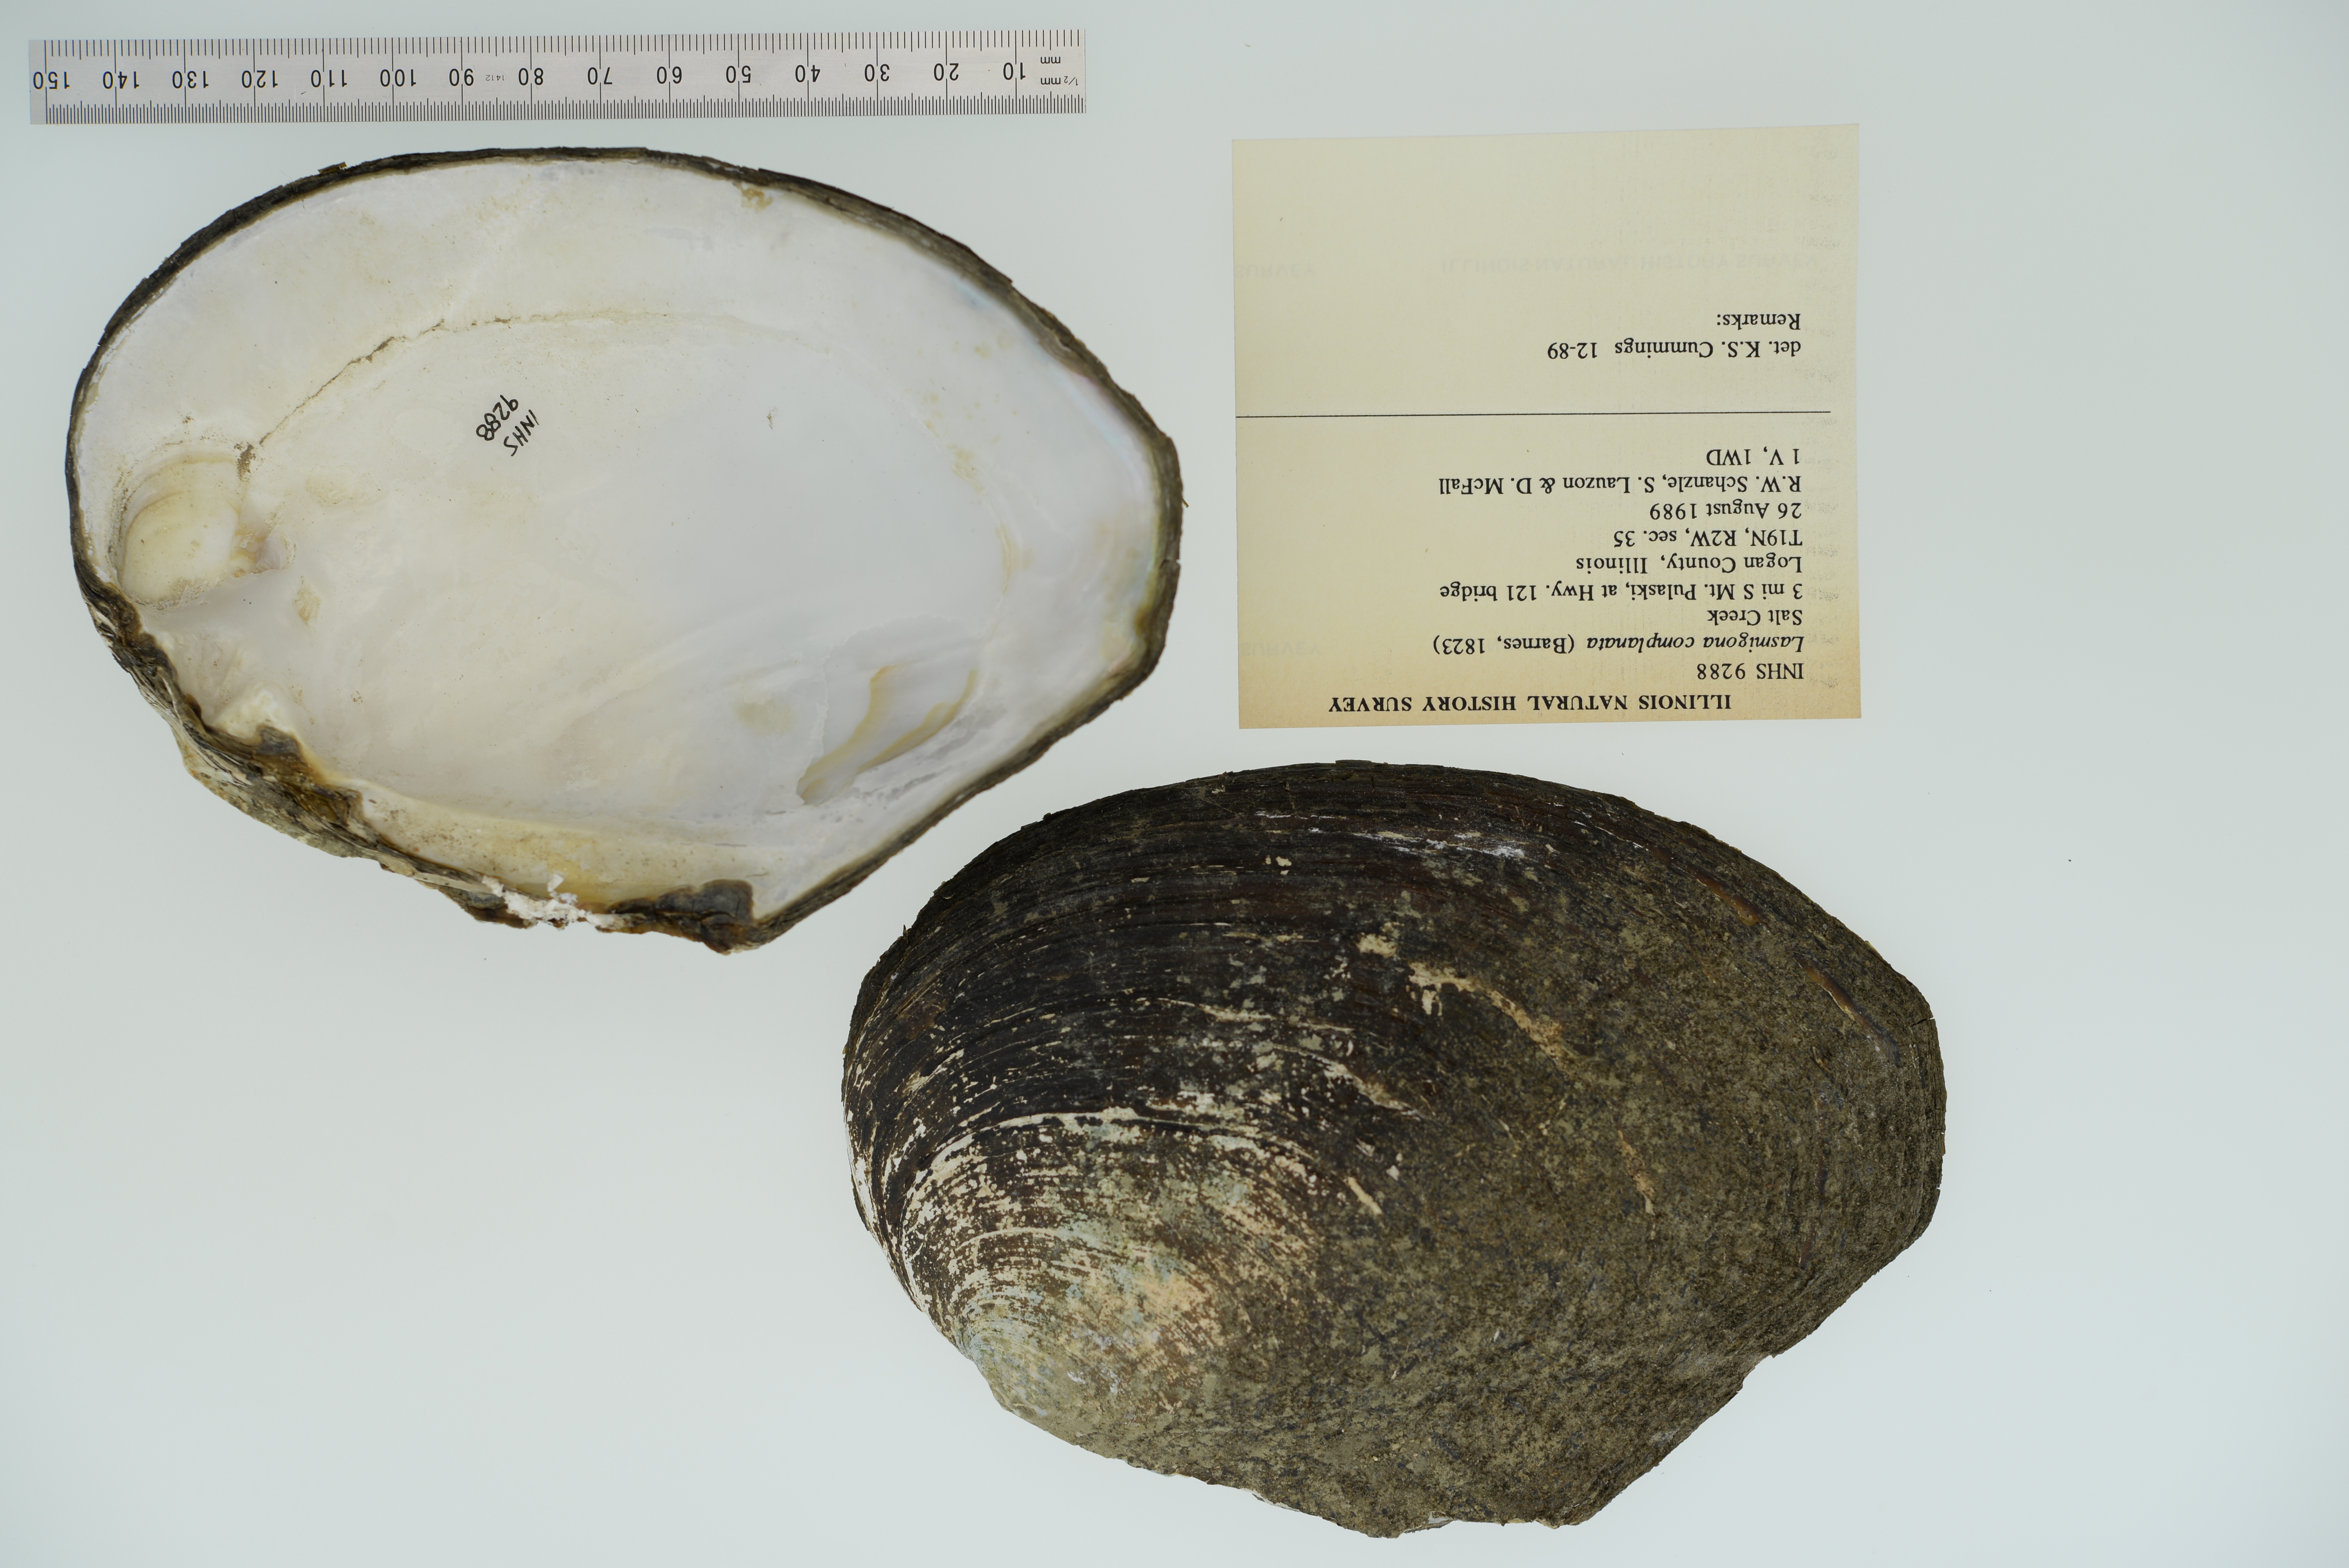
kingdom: Animalia
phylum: Mollusca
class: Bivalvia
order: Unionida
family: Unionidae
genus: Lasmigona
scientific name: Lasmigona complanata
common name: White heelsplitter
